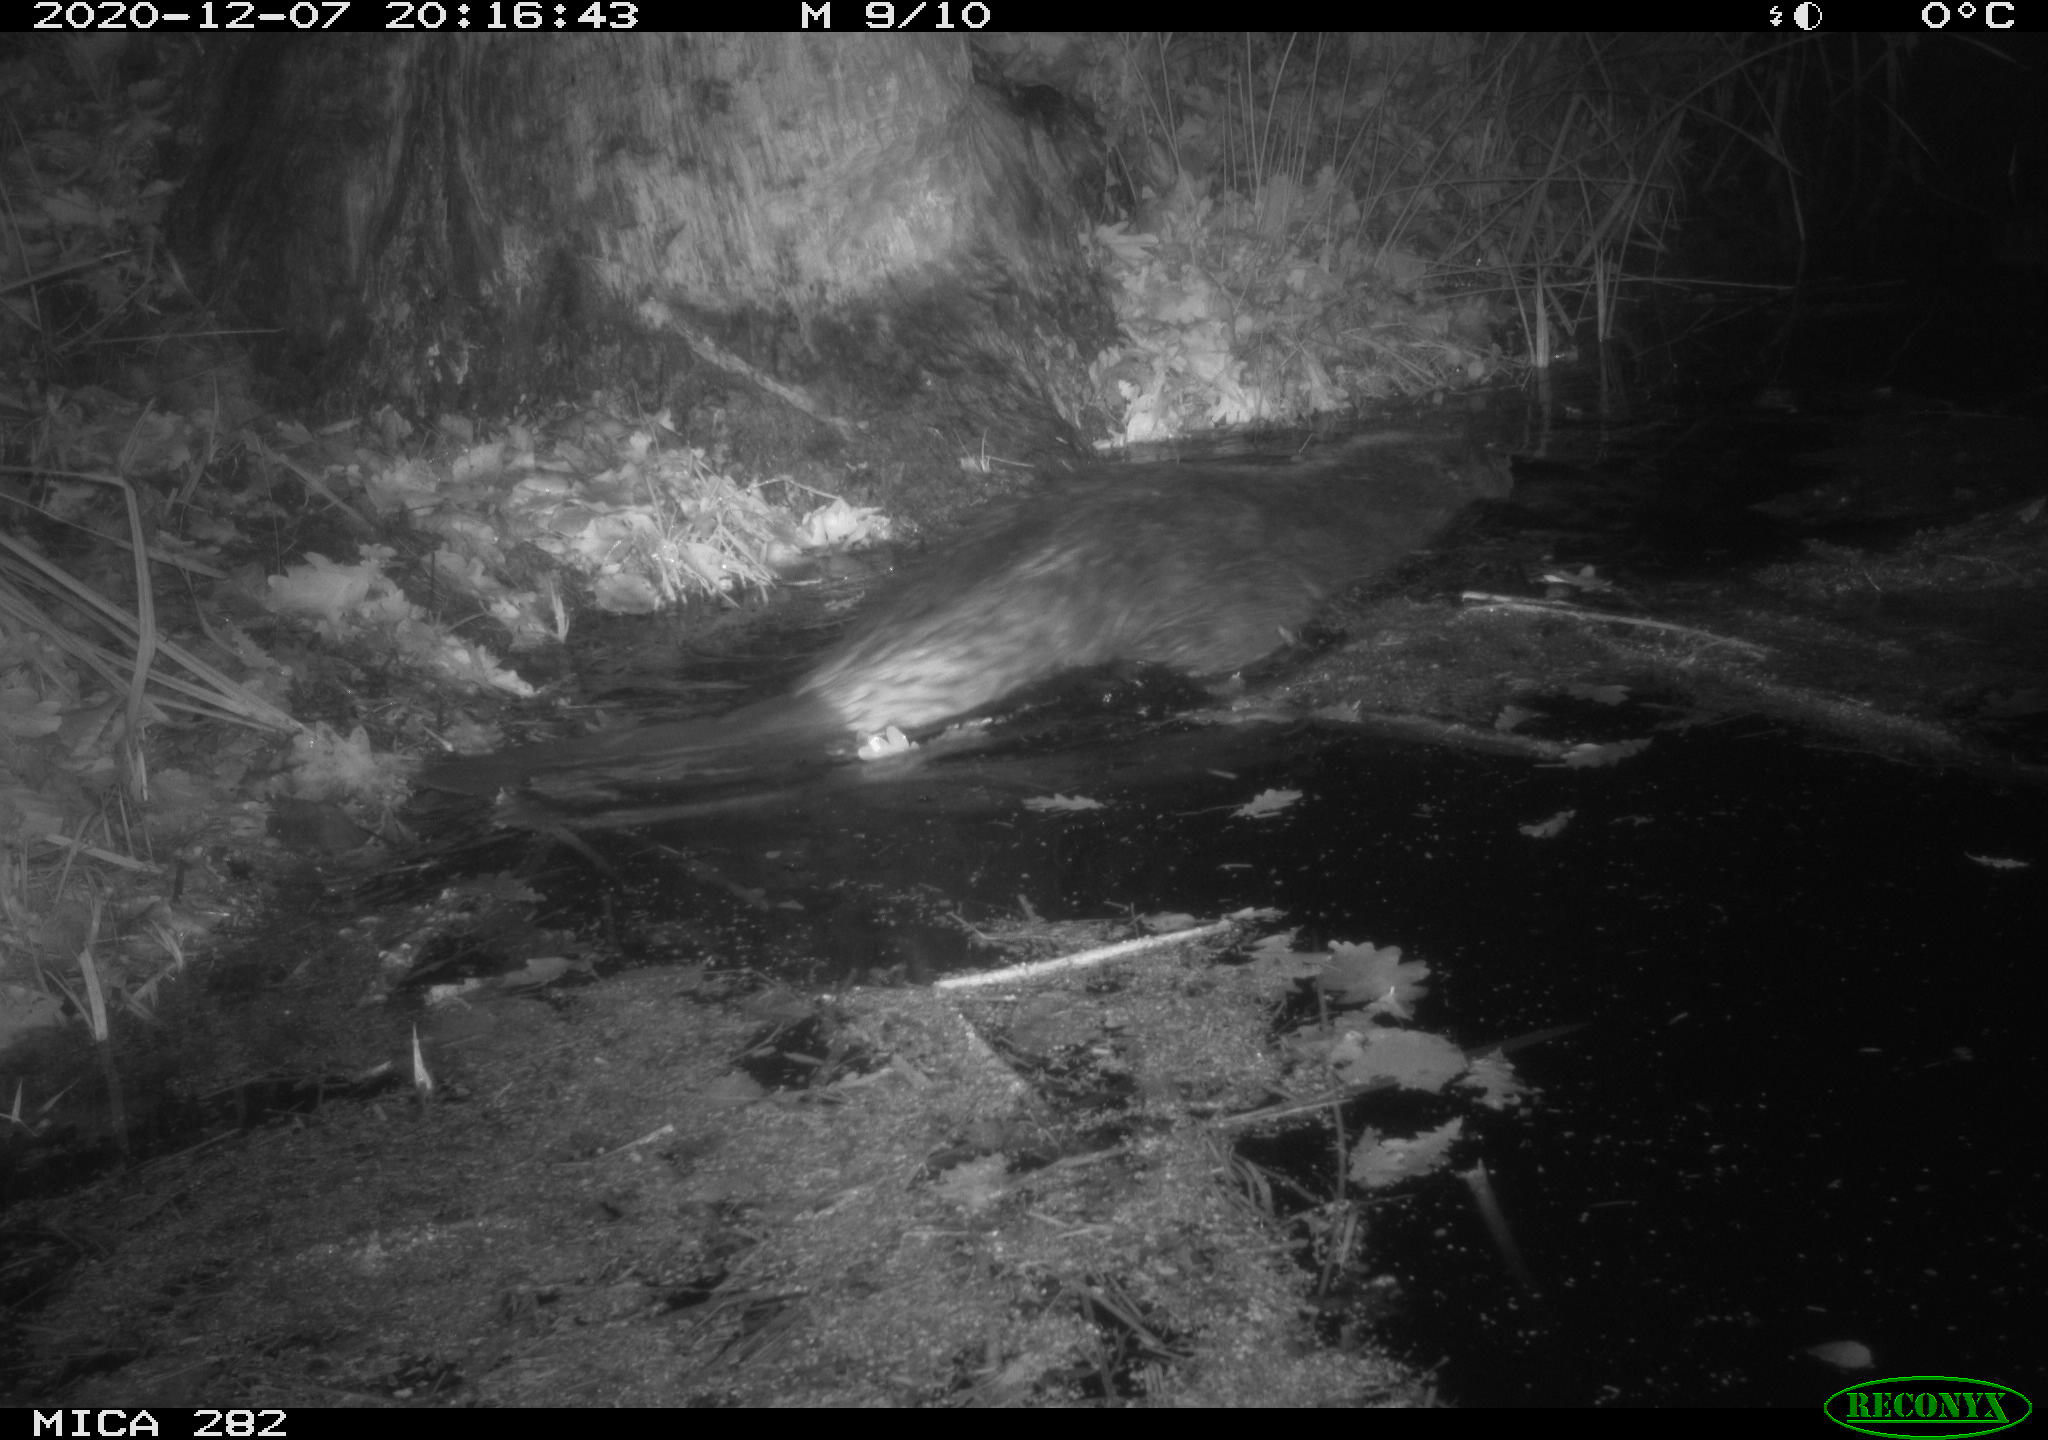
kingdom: Animalia
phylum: Chordata
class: Mammalia
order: Rodentia
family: Castoridae
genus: Castor
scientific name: Castor fiber
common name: Eurasian beaver
